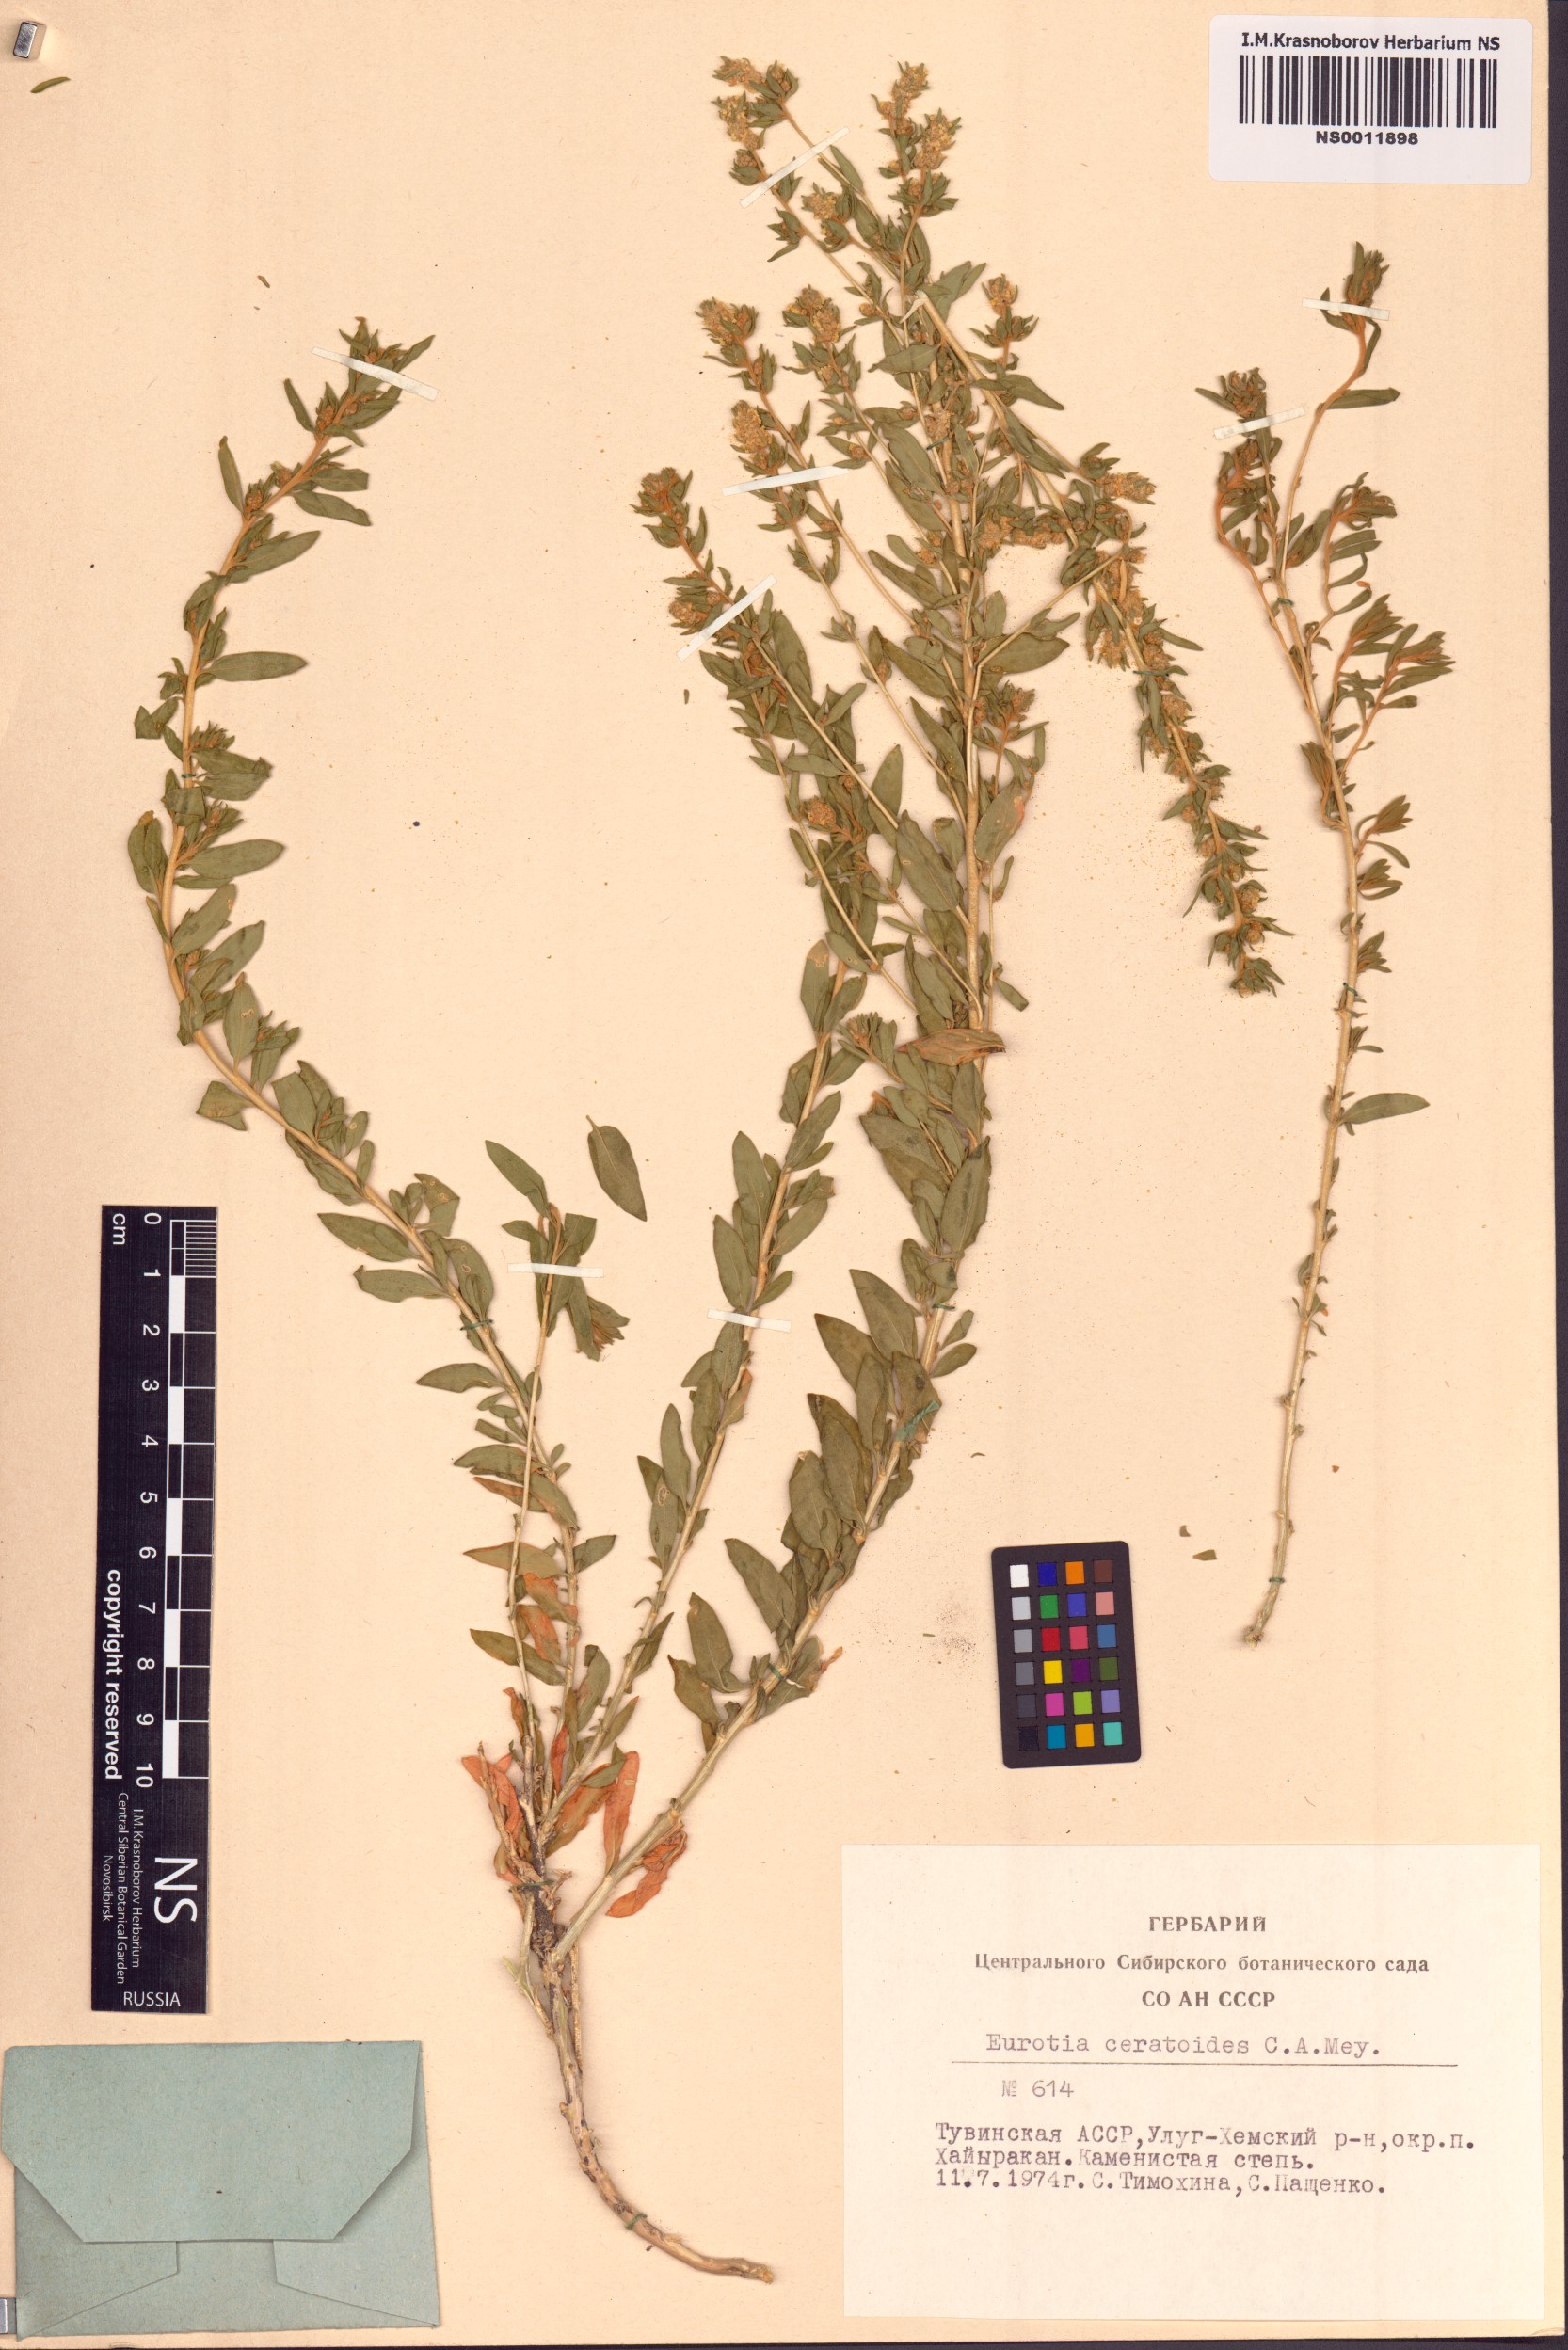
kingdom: Plantae
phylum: Tracheophyta
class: Magnoliopsida
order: Caryophyllales
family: Amaranthaceae
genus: Krascheninnikovia
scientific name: Krascheninnikovia ceratoides
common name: Pamirian winterfat
